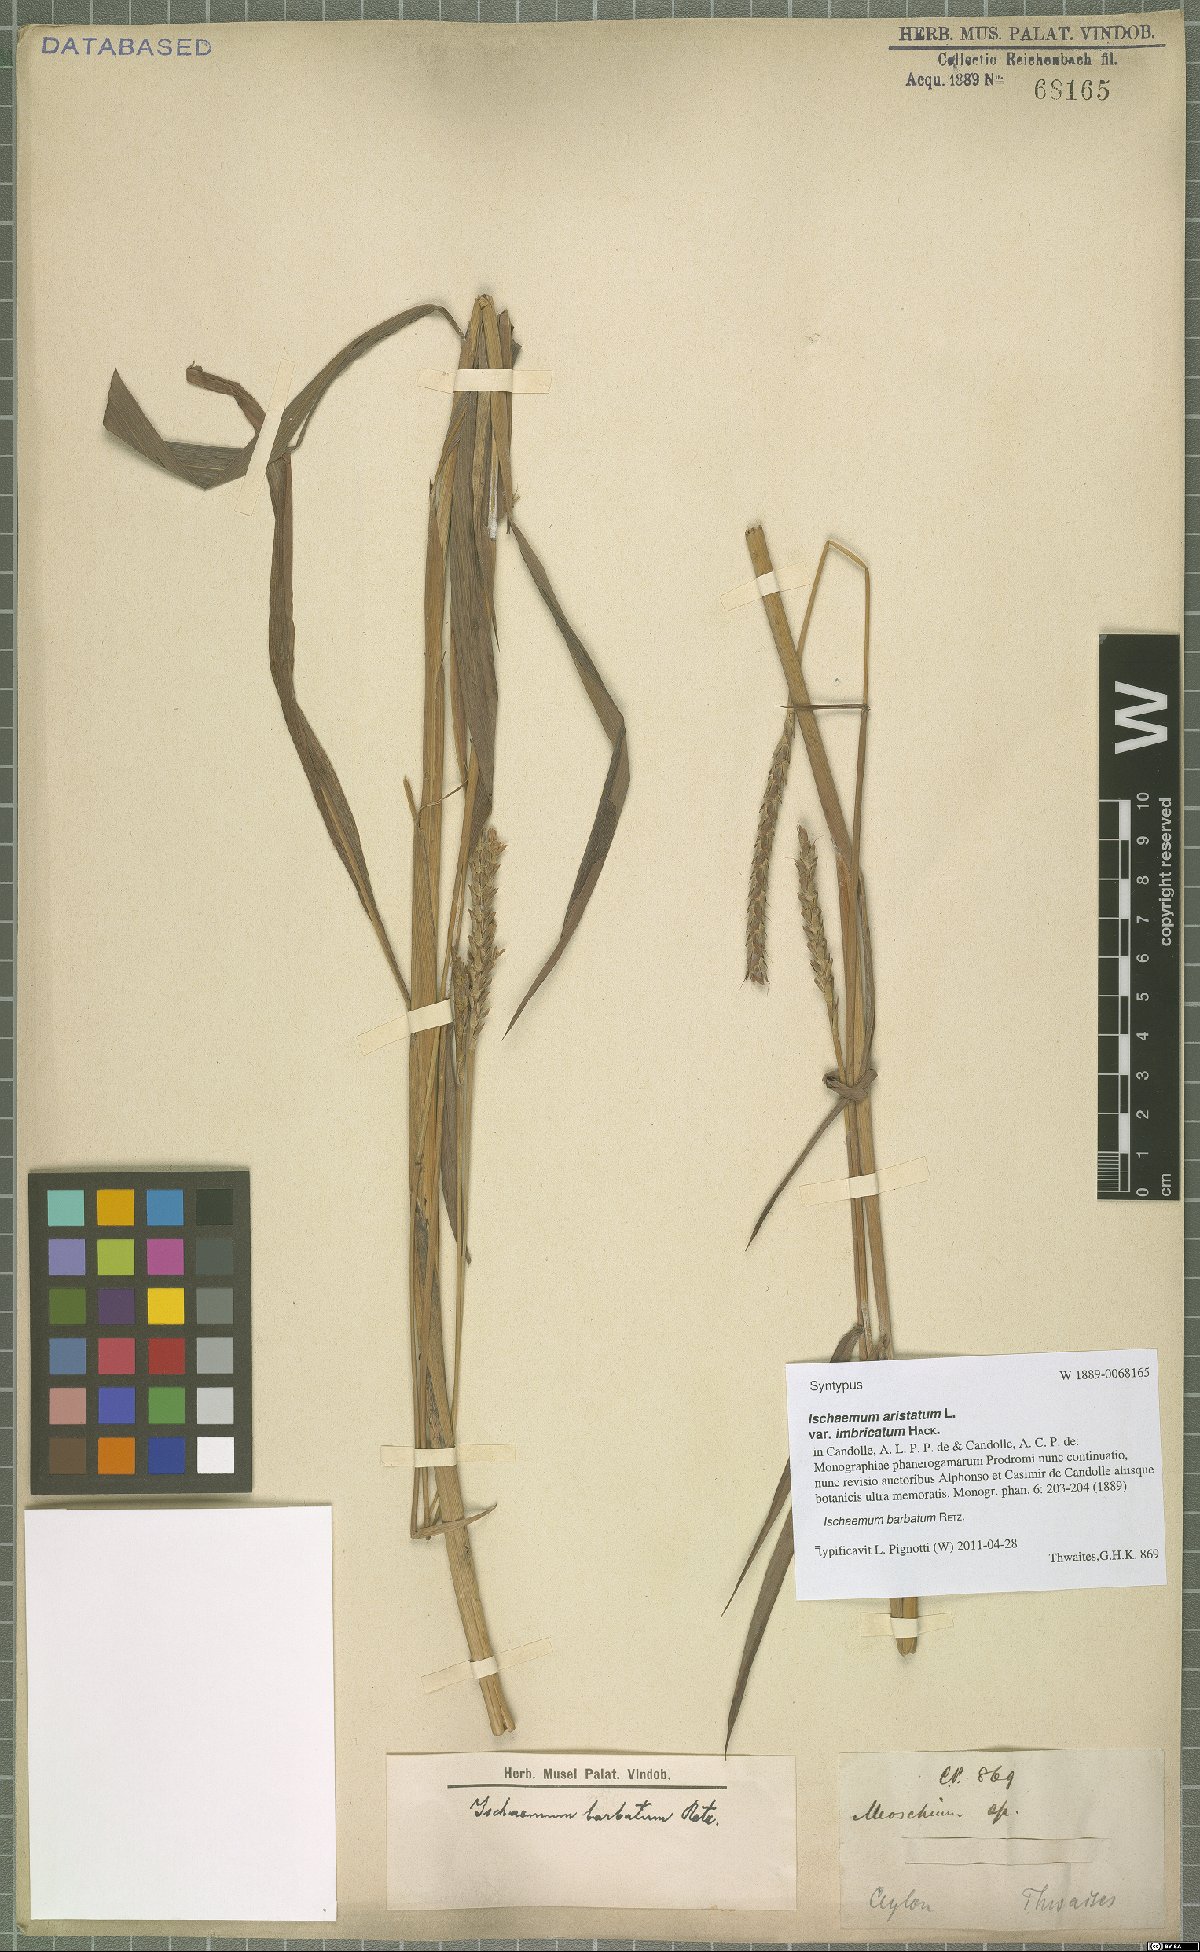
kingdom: Plantae
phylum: Tracheophyta
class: Liliopsida
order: Poales
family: Poaceae
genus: Ischaemum
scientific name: Ischaemum barbatum
